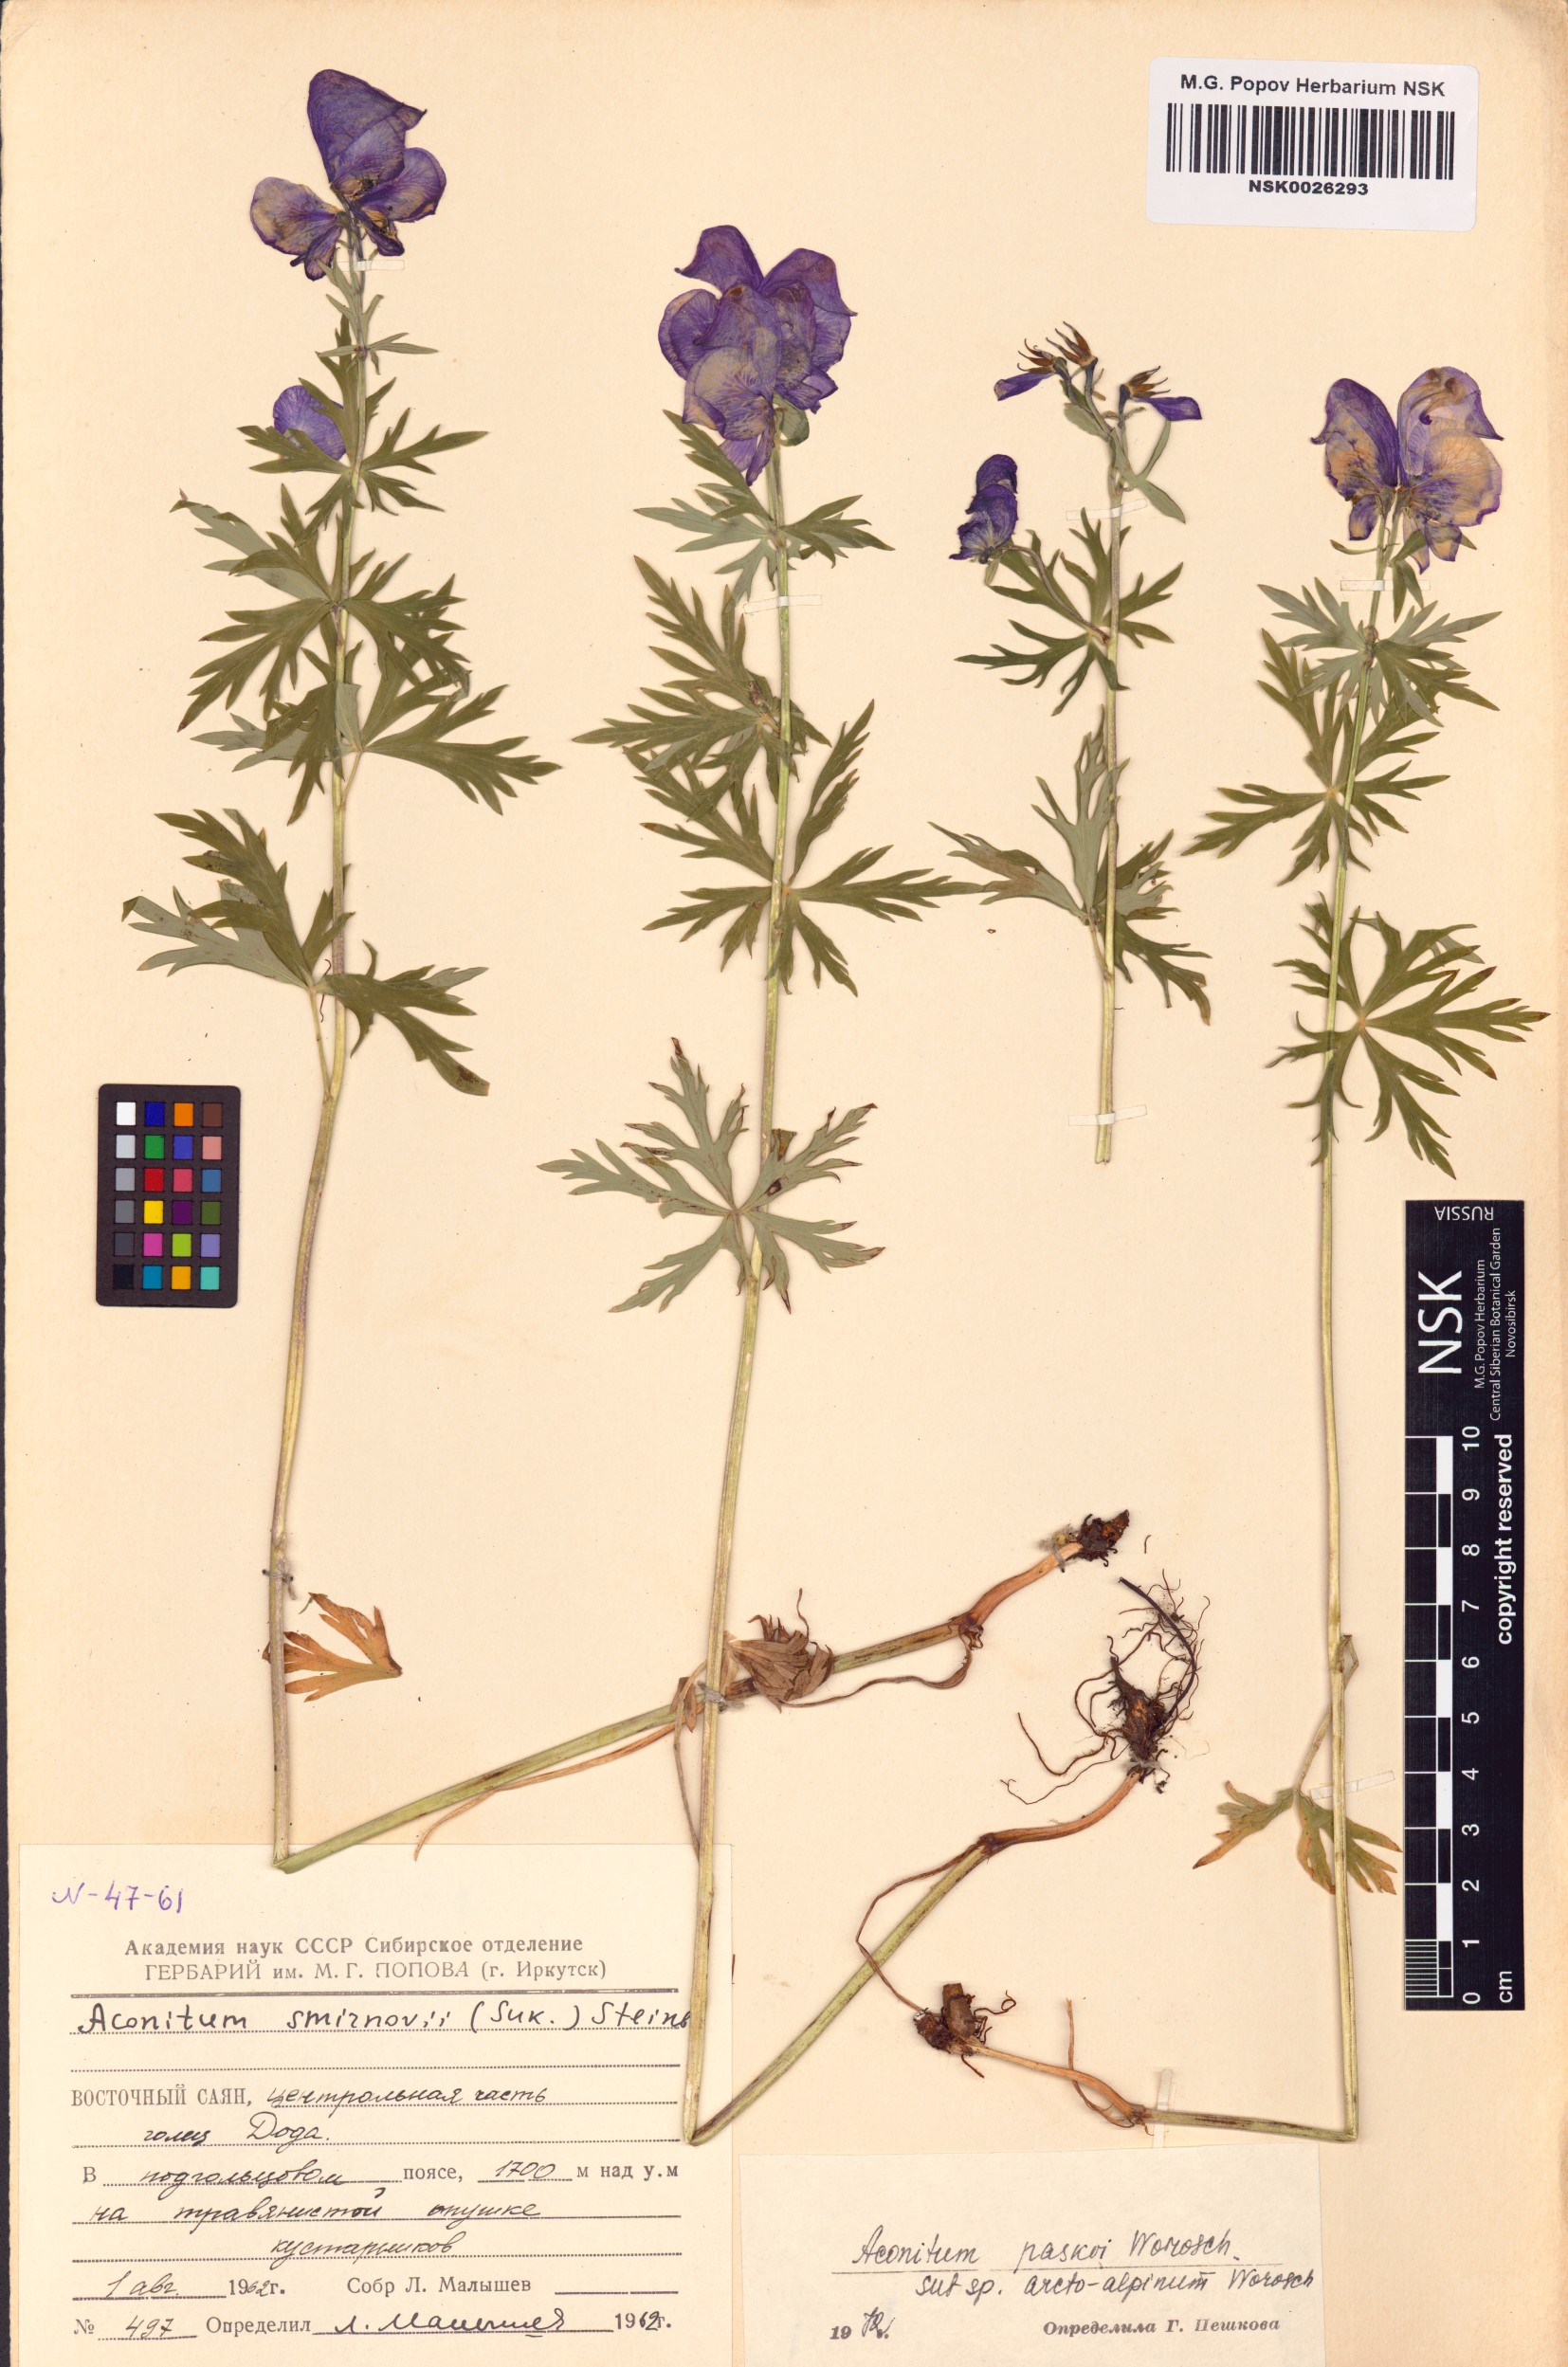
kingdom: Plantae
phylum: Tracheophyta
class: Magnoliopsida
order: Ranunculales
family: Ranunculaceae
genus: Aconitum
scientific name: Aconitum pascoi
